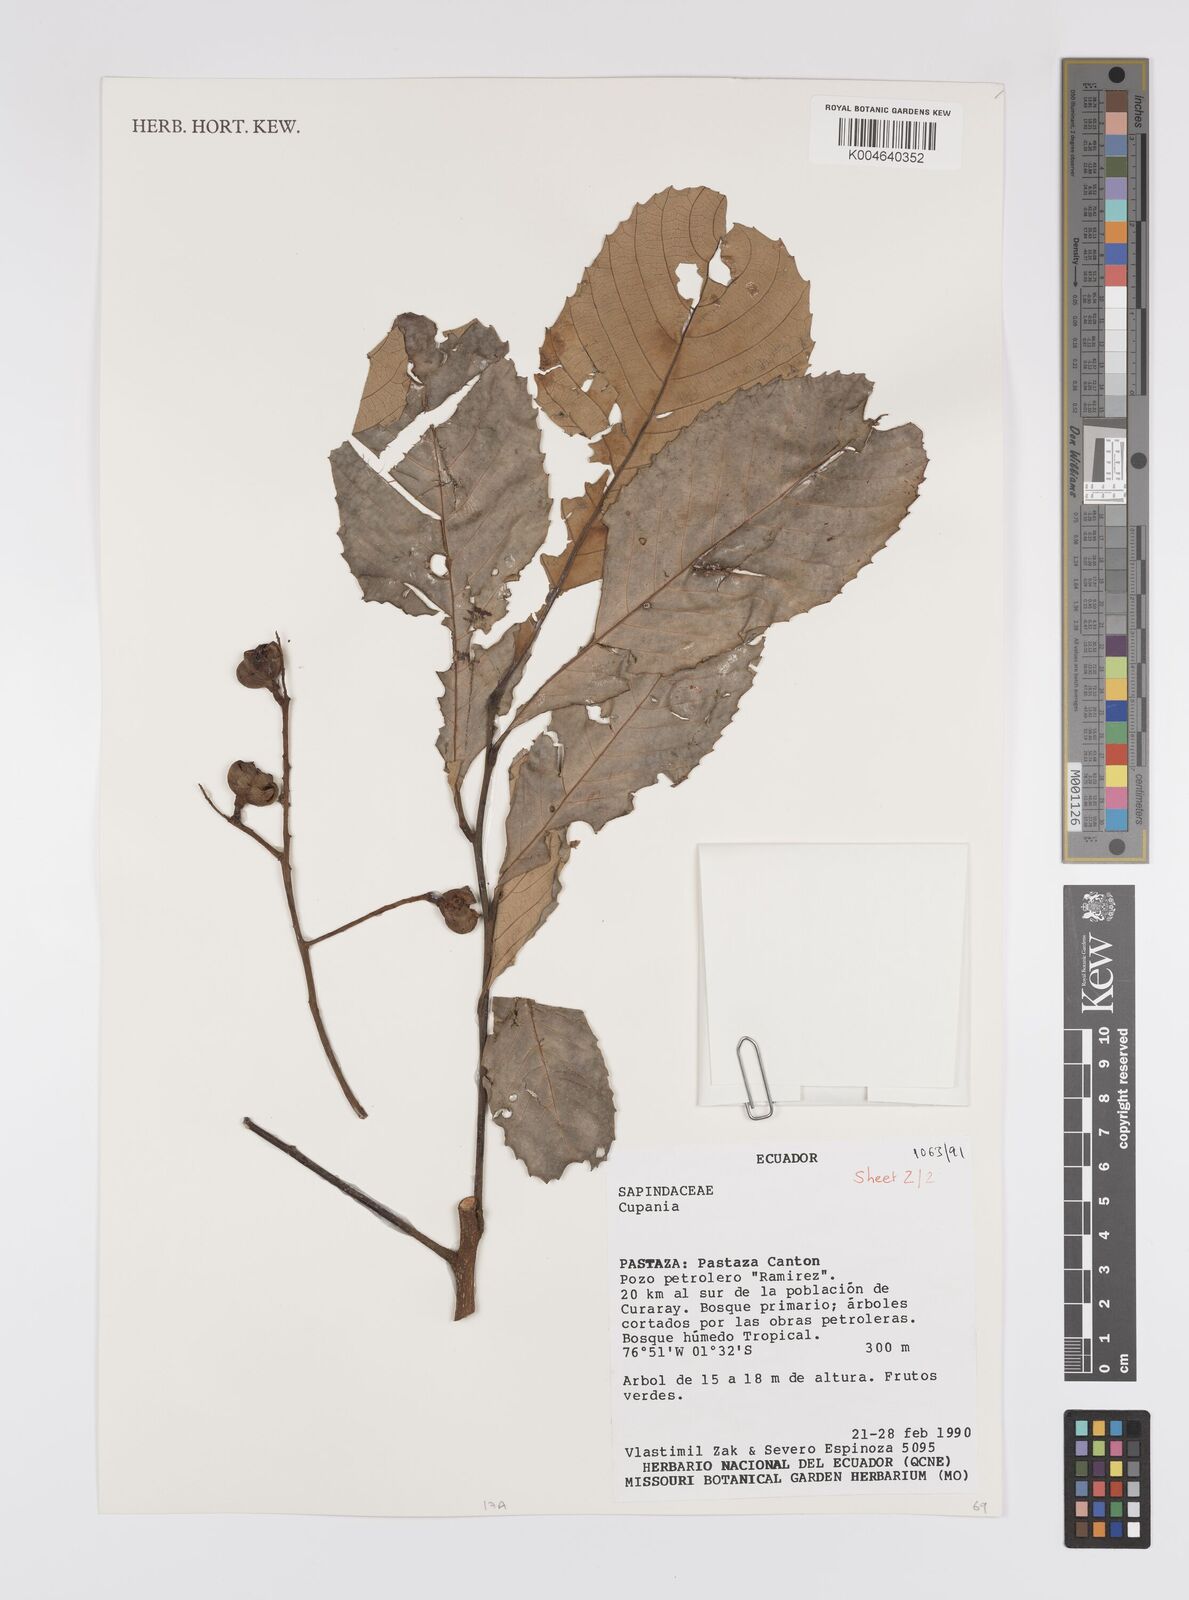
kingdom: Plantae
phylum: Tracheophyta
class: Magnoliopsida
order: Sapindales
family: Sapindaceae
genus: Cupania
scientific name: Cupania
